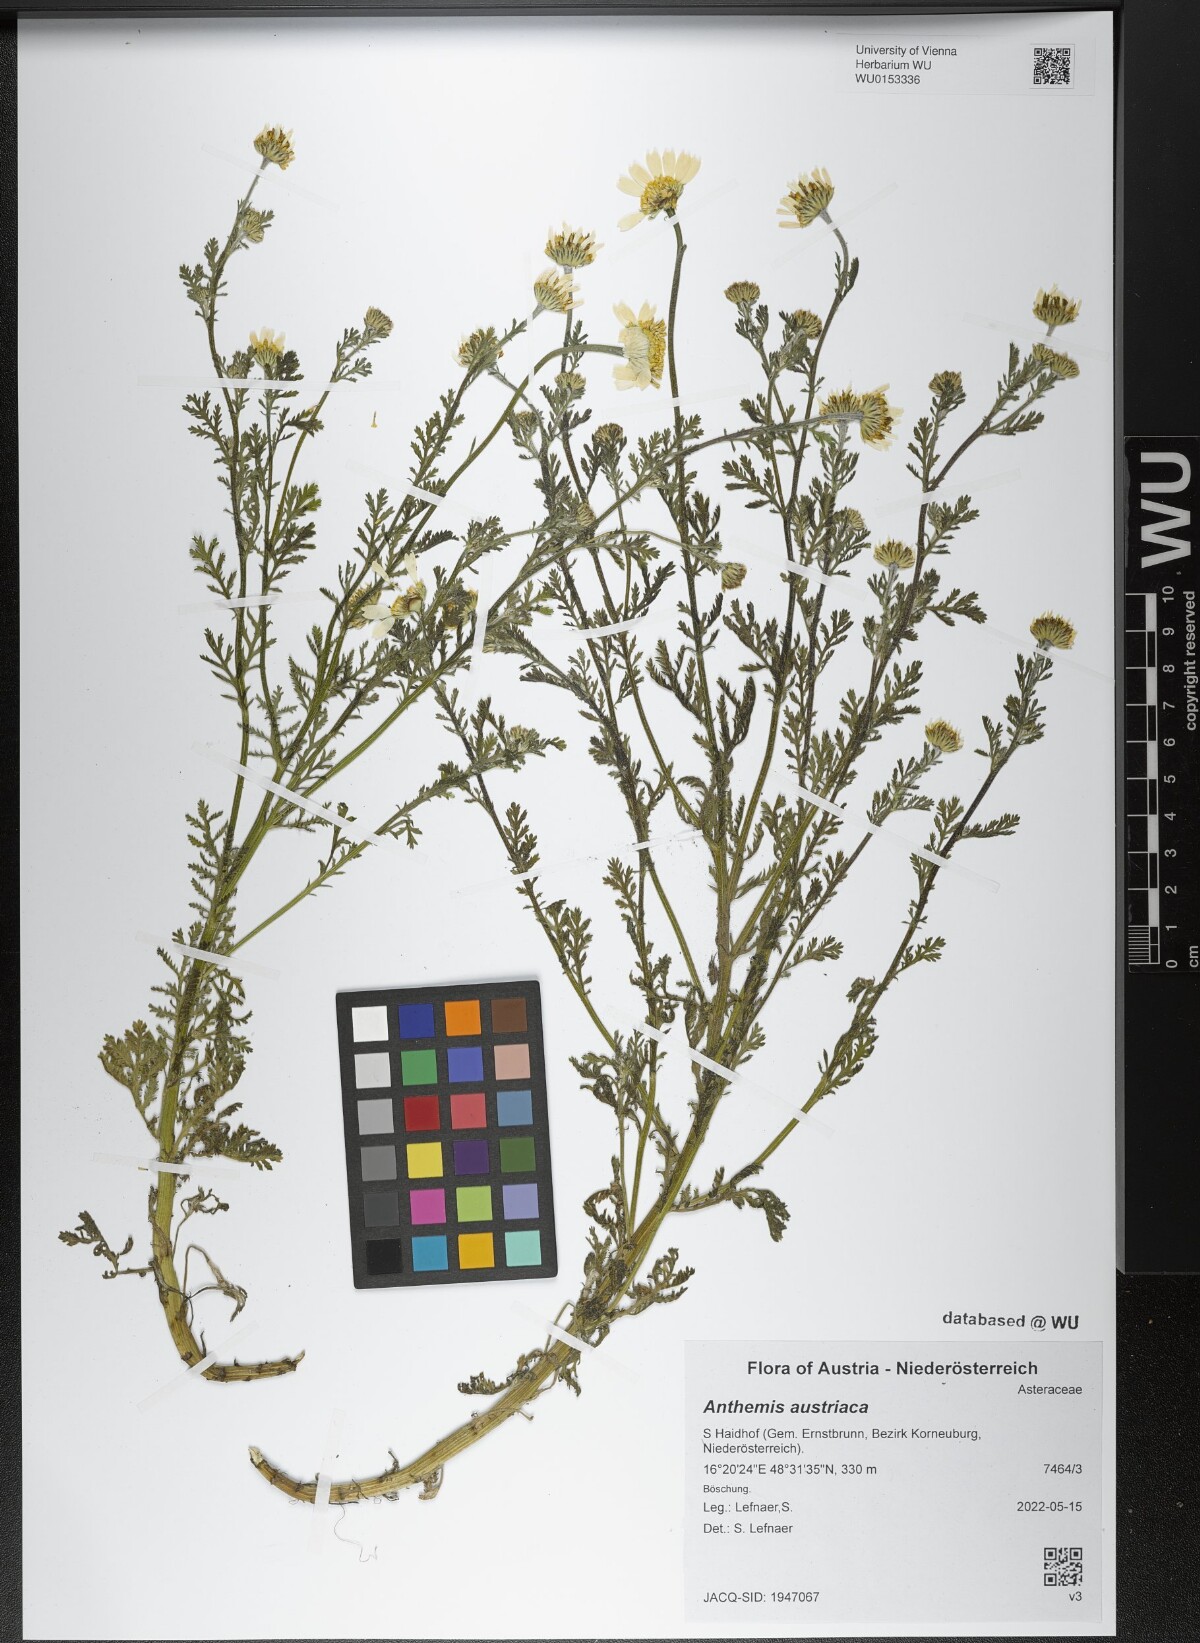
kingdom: Plantae
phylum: Tracheophyta
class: Magnoliopsida
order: Asterales
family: Asteraceae
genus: Cota
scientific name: Cota austriaca
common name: Austrian chamomile
